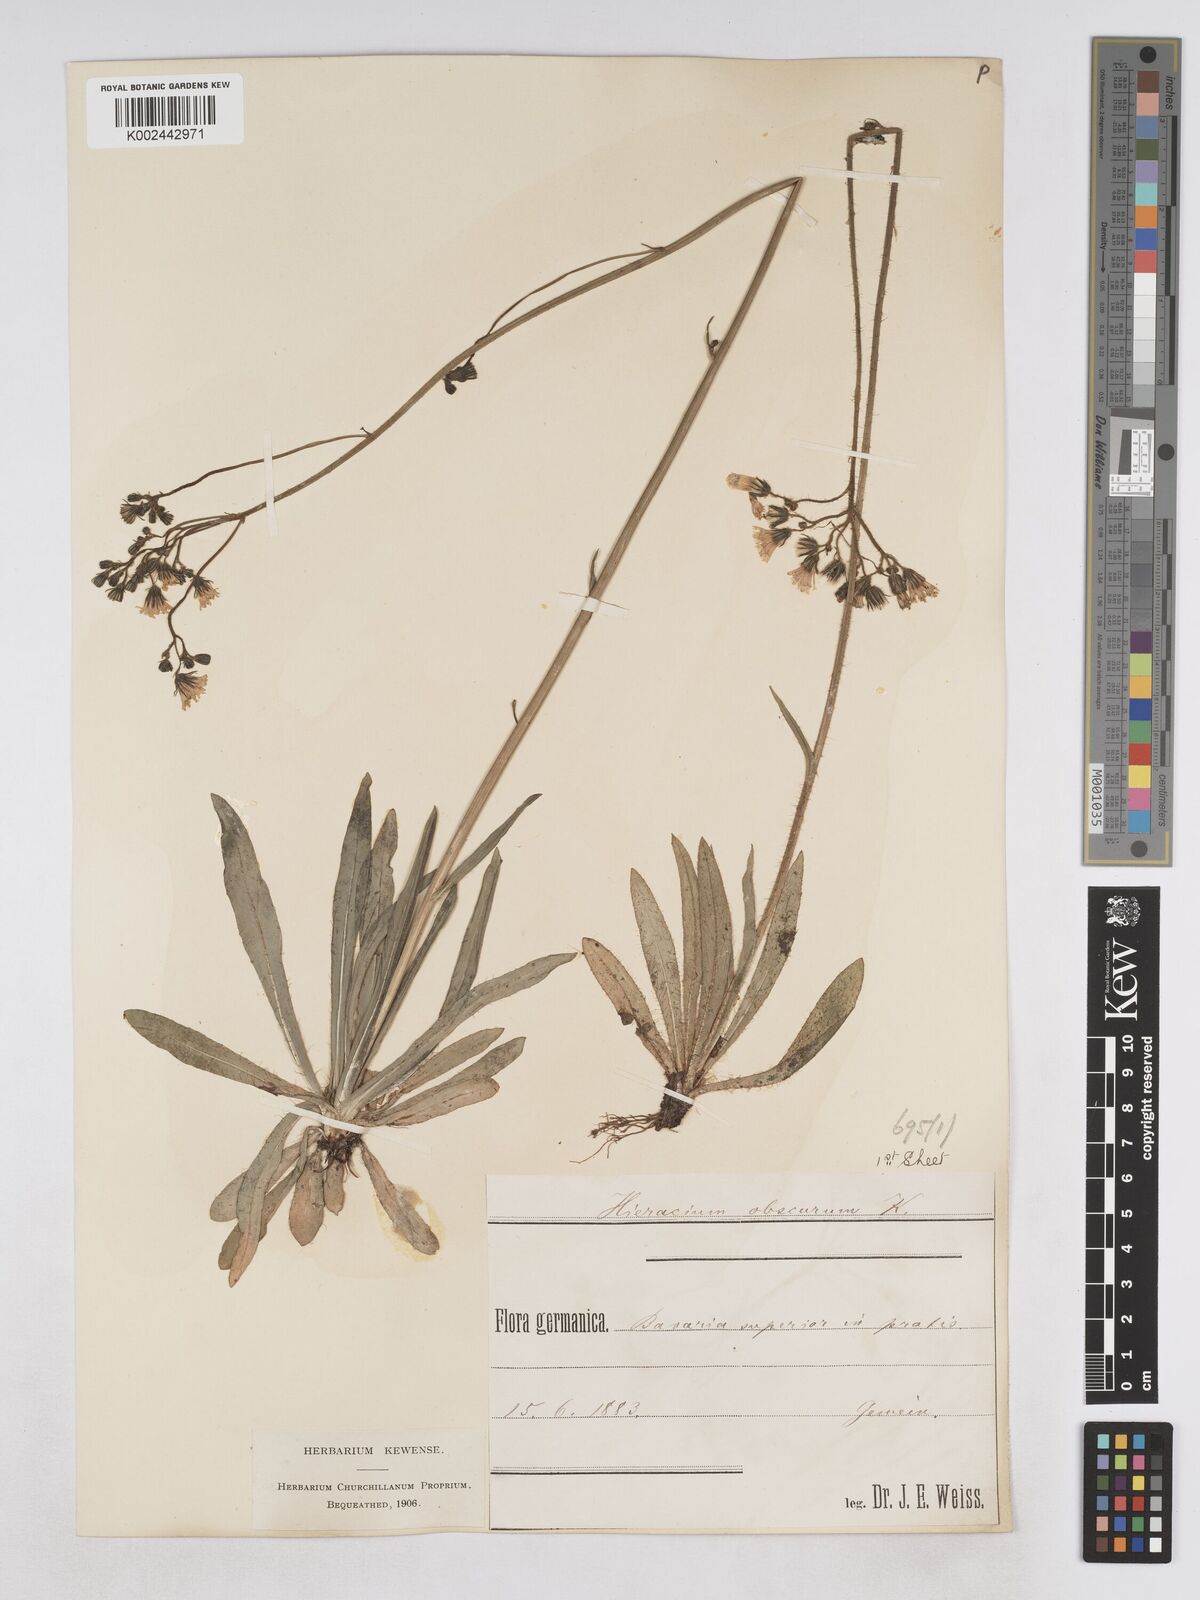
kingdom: Plantae
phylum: Tracheophyta
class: Magnoliopsida
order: Asterales
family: Asteraceae
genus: Pilosella
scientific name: Pilosella piloselloides
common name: Glaucous king-devil
